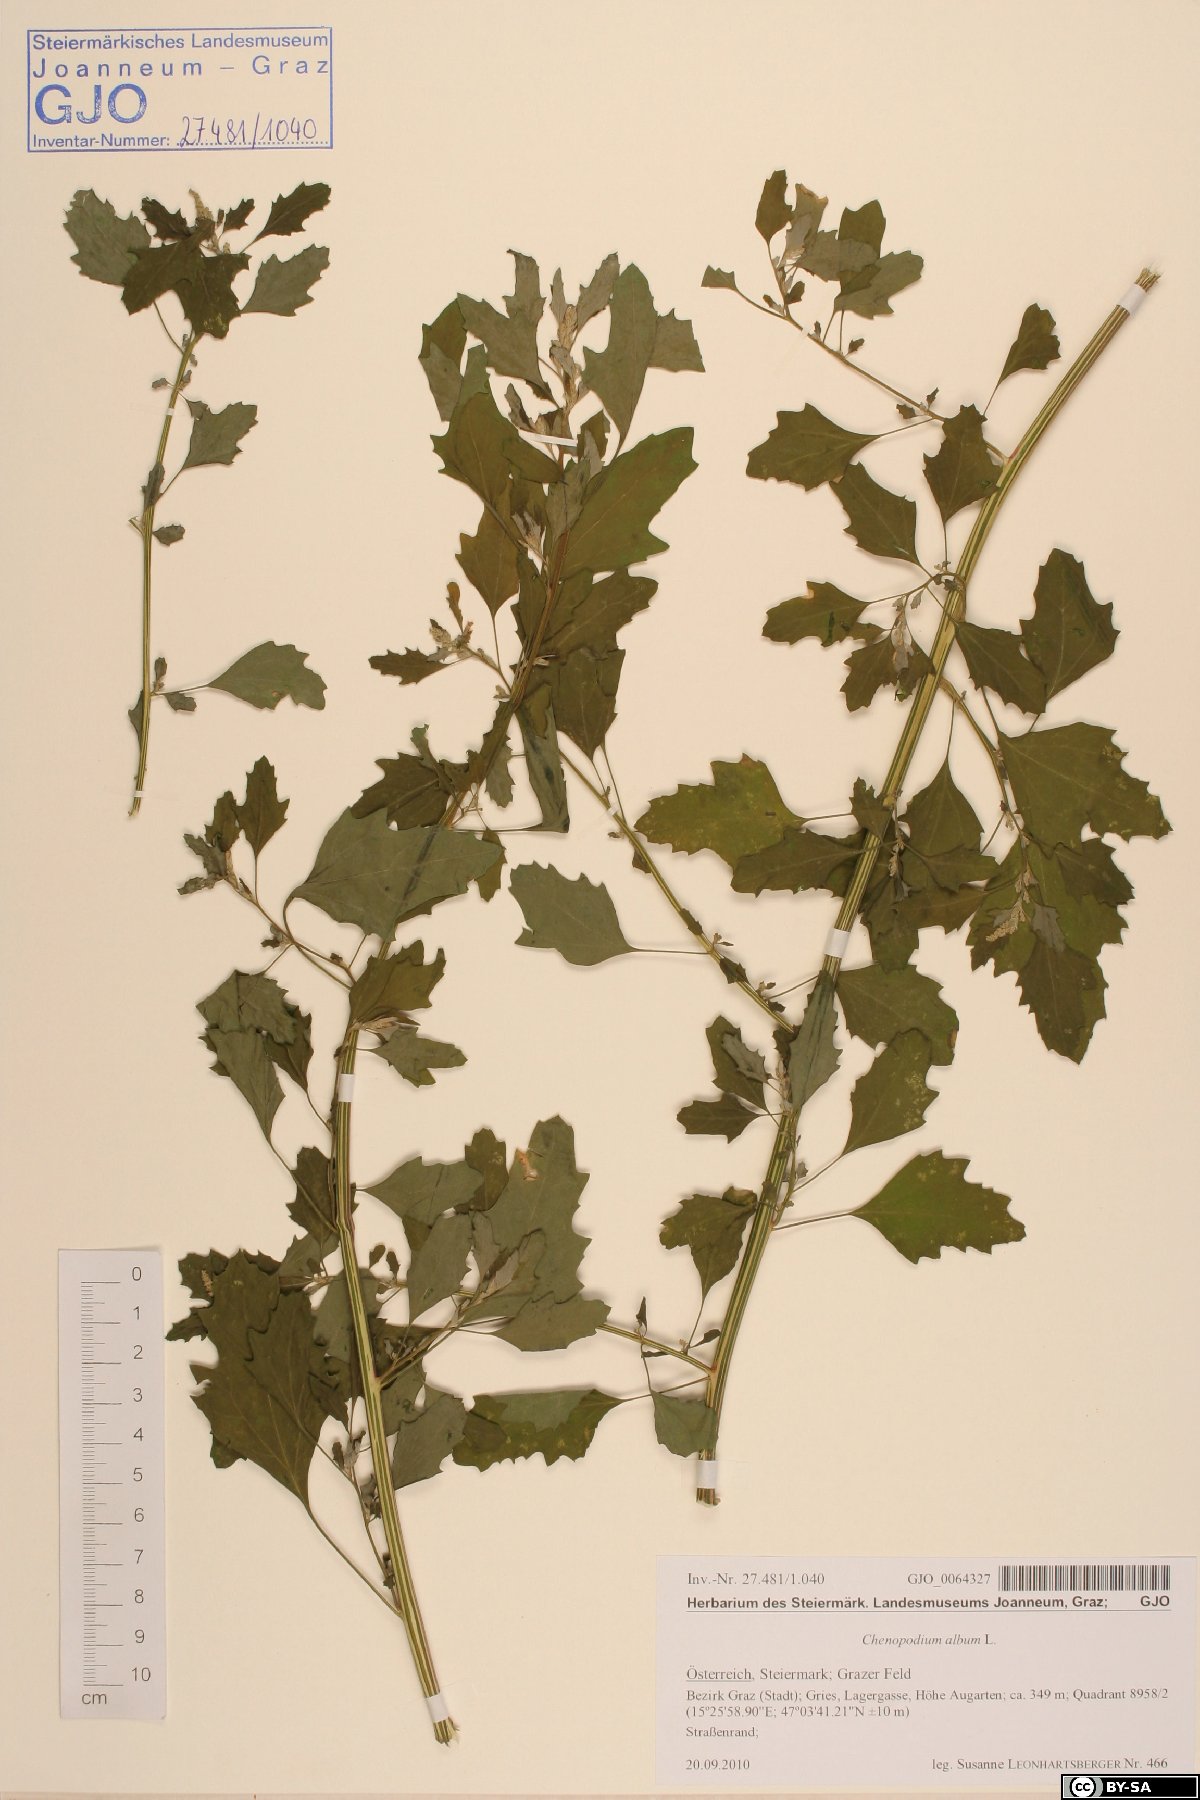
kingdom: Plantae
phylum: Tracheophyta
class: Magnoliopsida
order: Caryophyllales
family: Amaranthaceae
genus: Chenopodium
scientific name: Chenopodium album
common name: Fat-hen
